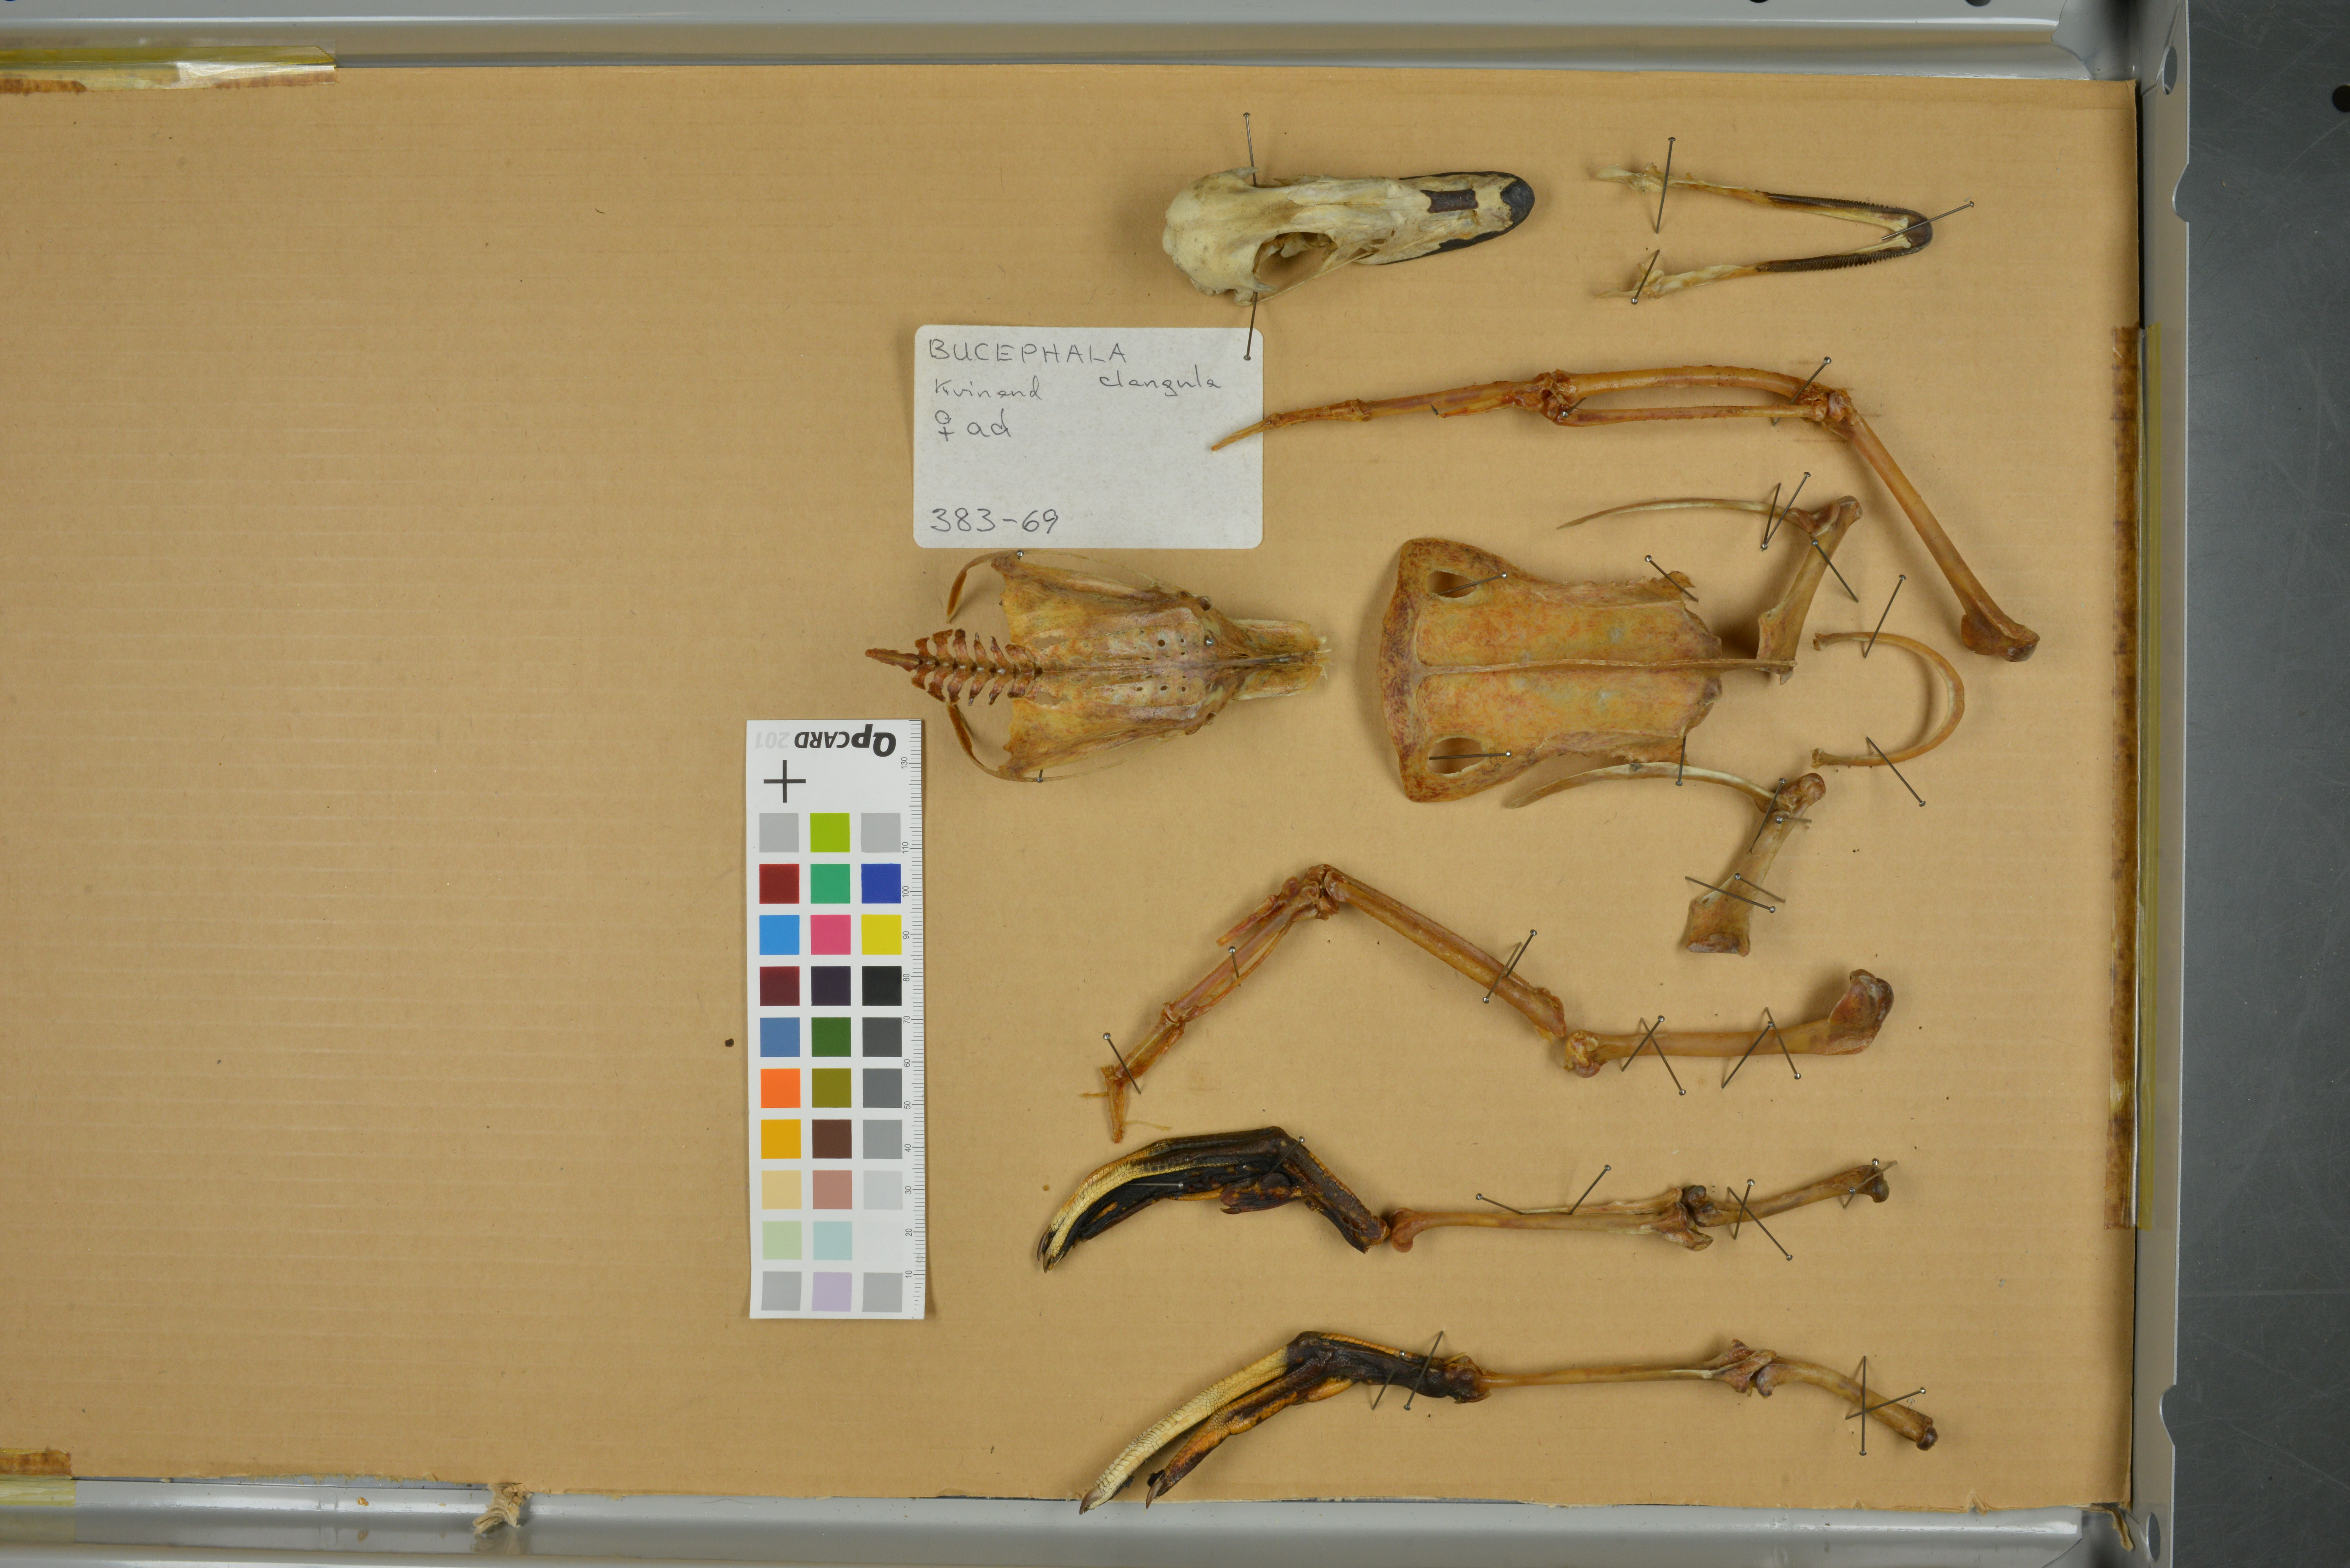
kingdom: Animalia
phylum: Chordata
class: Aves
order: Anseriformes
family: Anatidae
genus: Bucephala
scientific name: Bucephala clangula
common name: Common goldeneye
